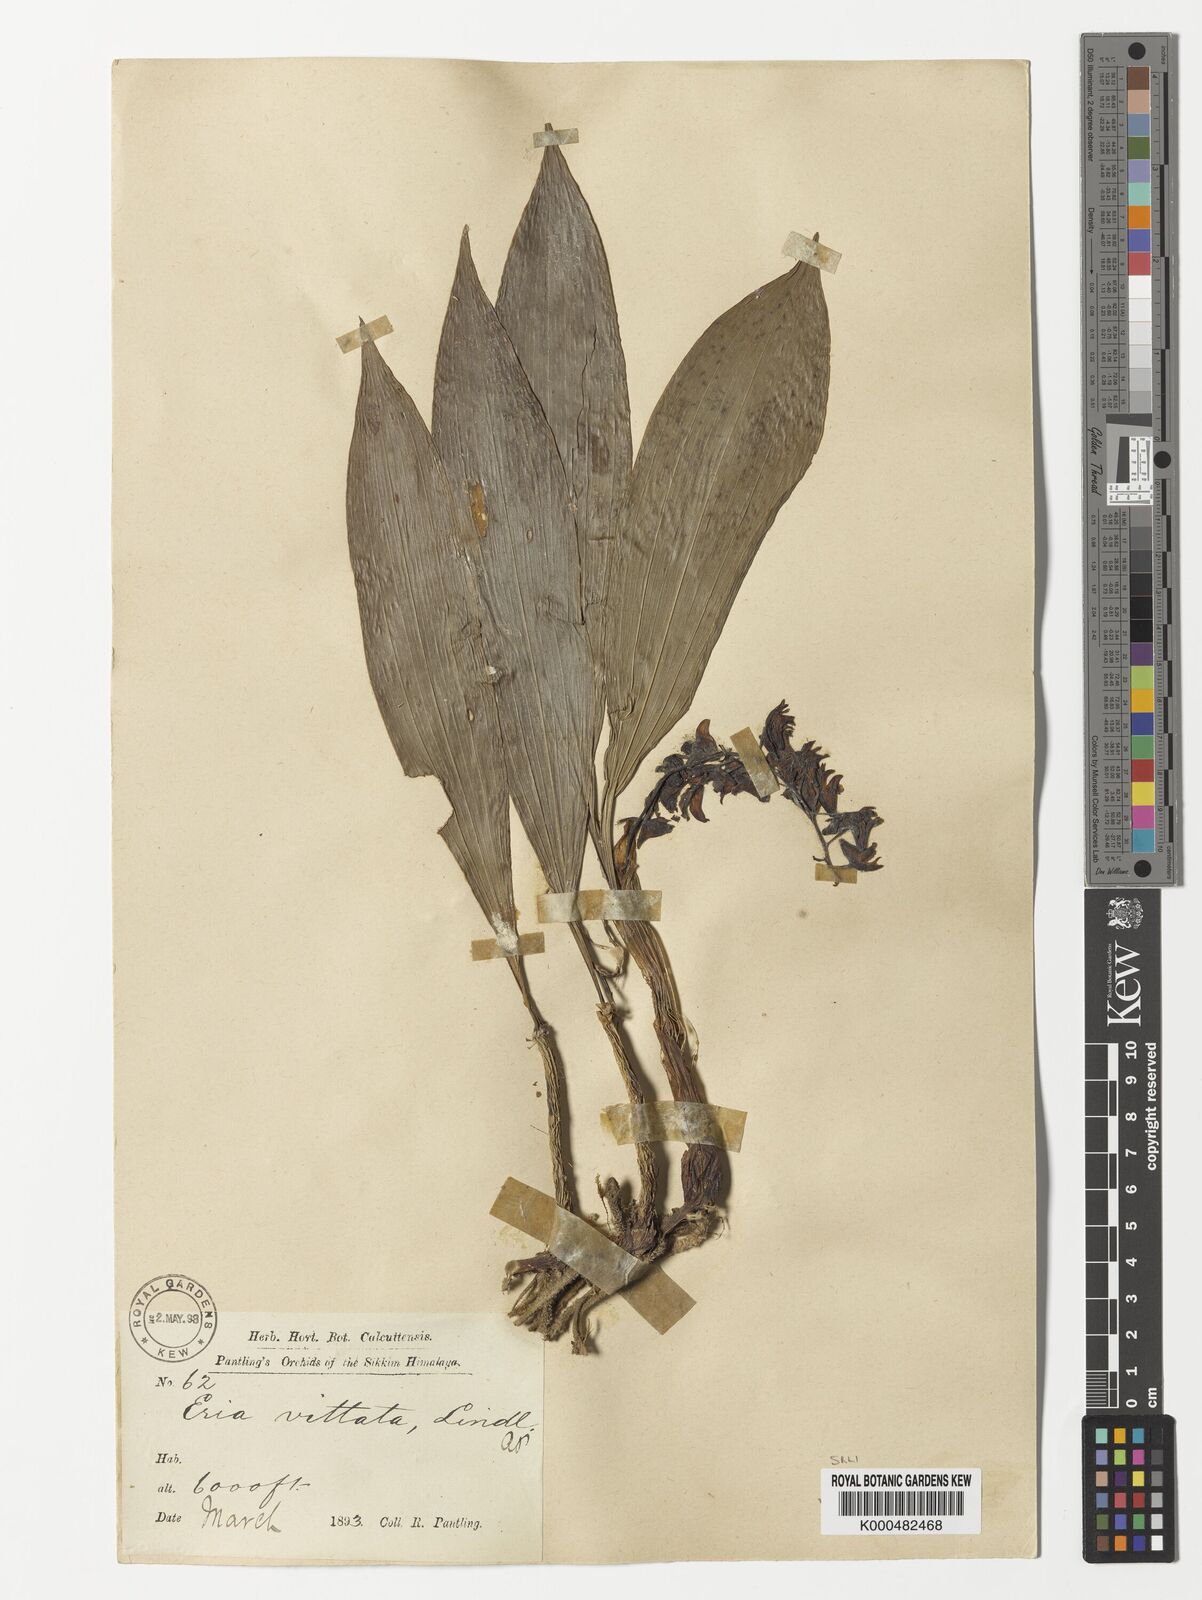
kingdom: Plantae
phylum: Tracheophyta
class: Liliopsida
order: Asparagales
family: Orchidaceae
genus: Eria
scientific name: Eria vittata
